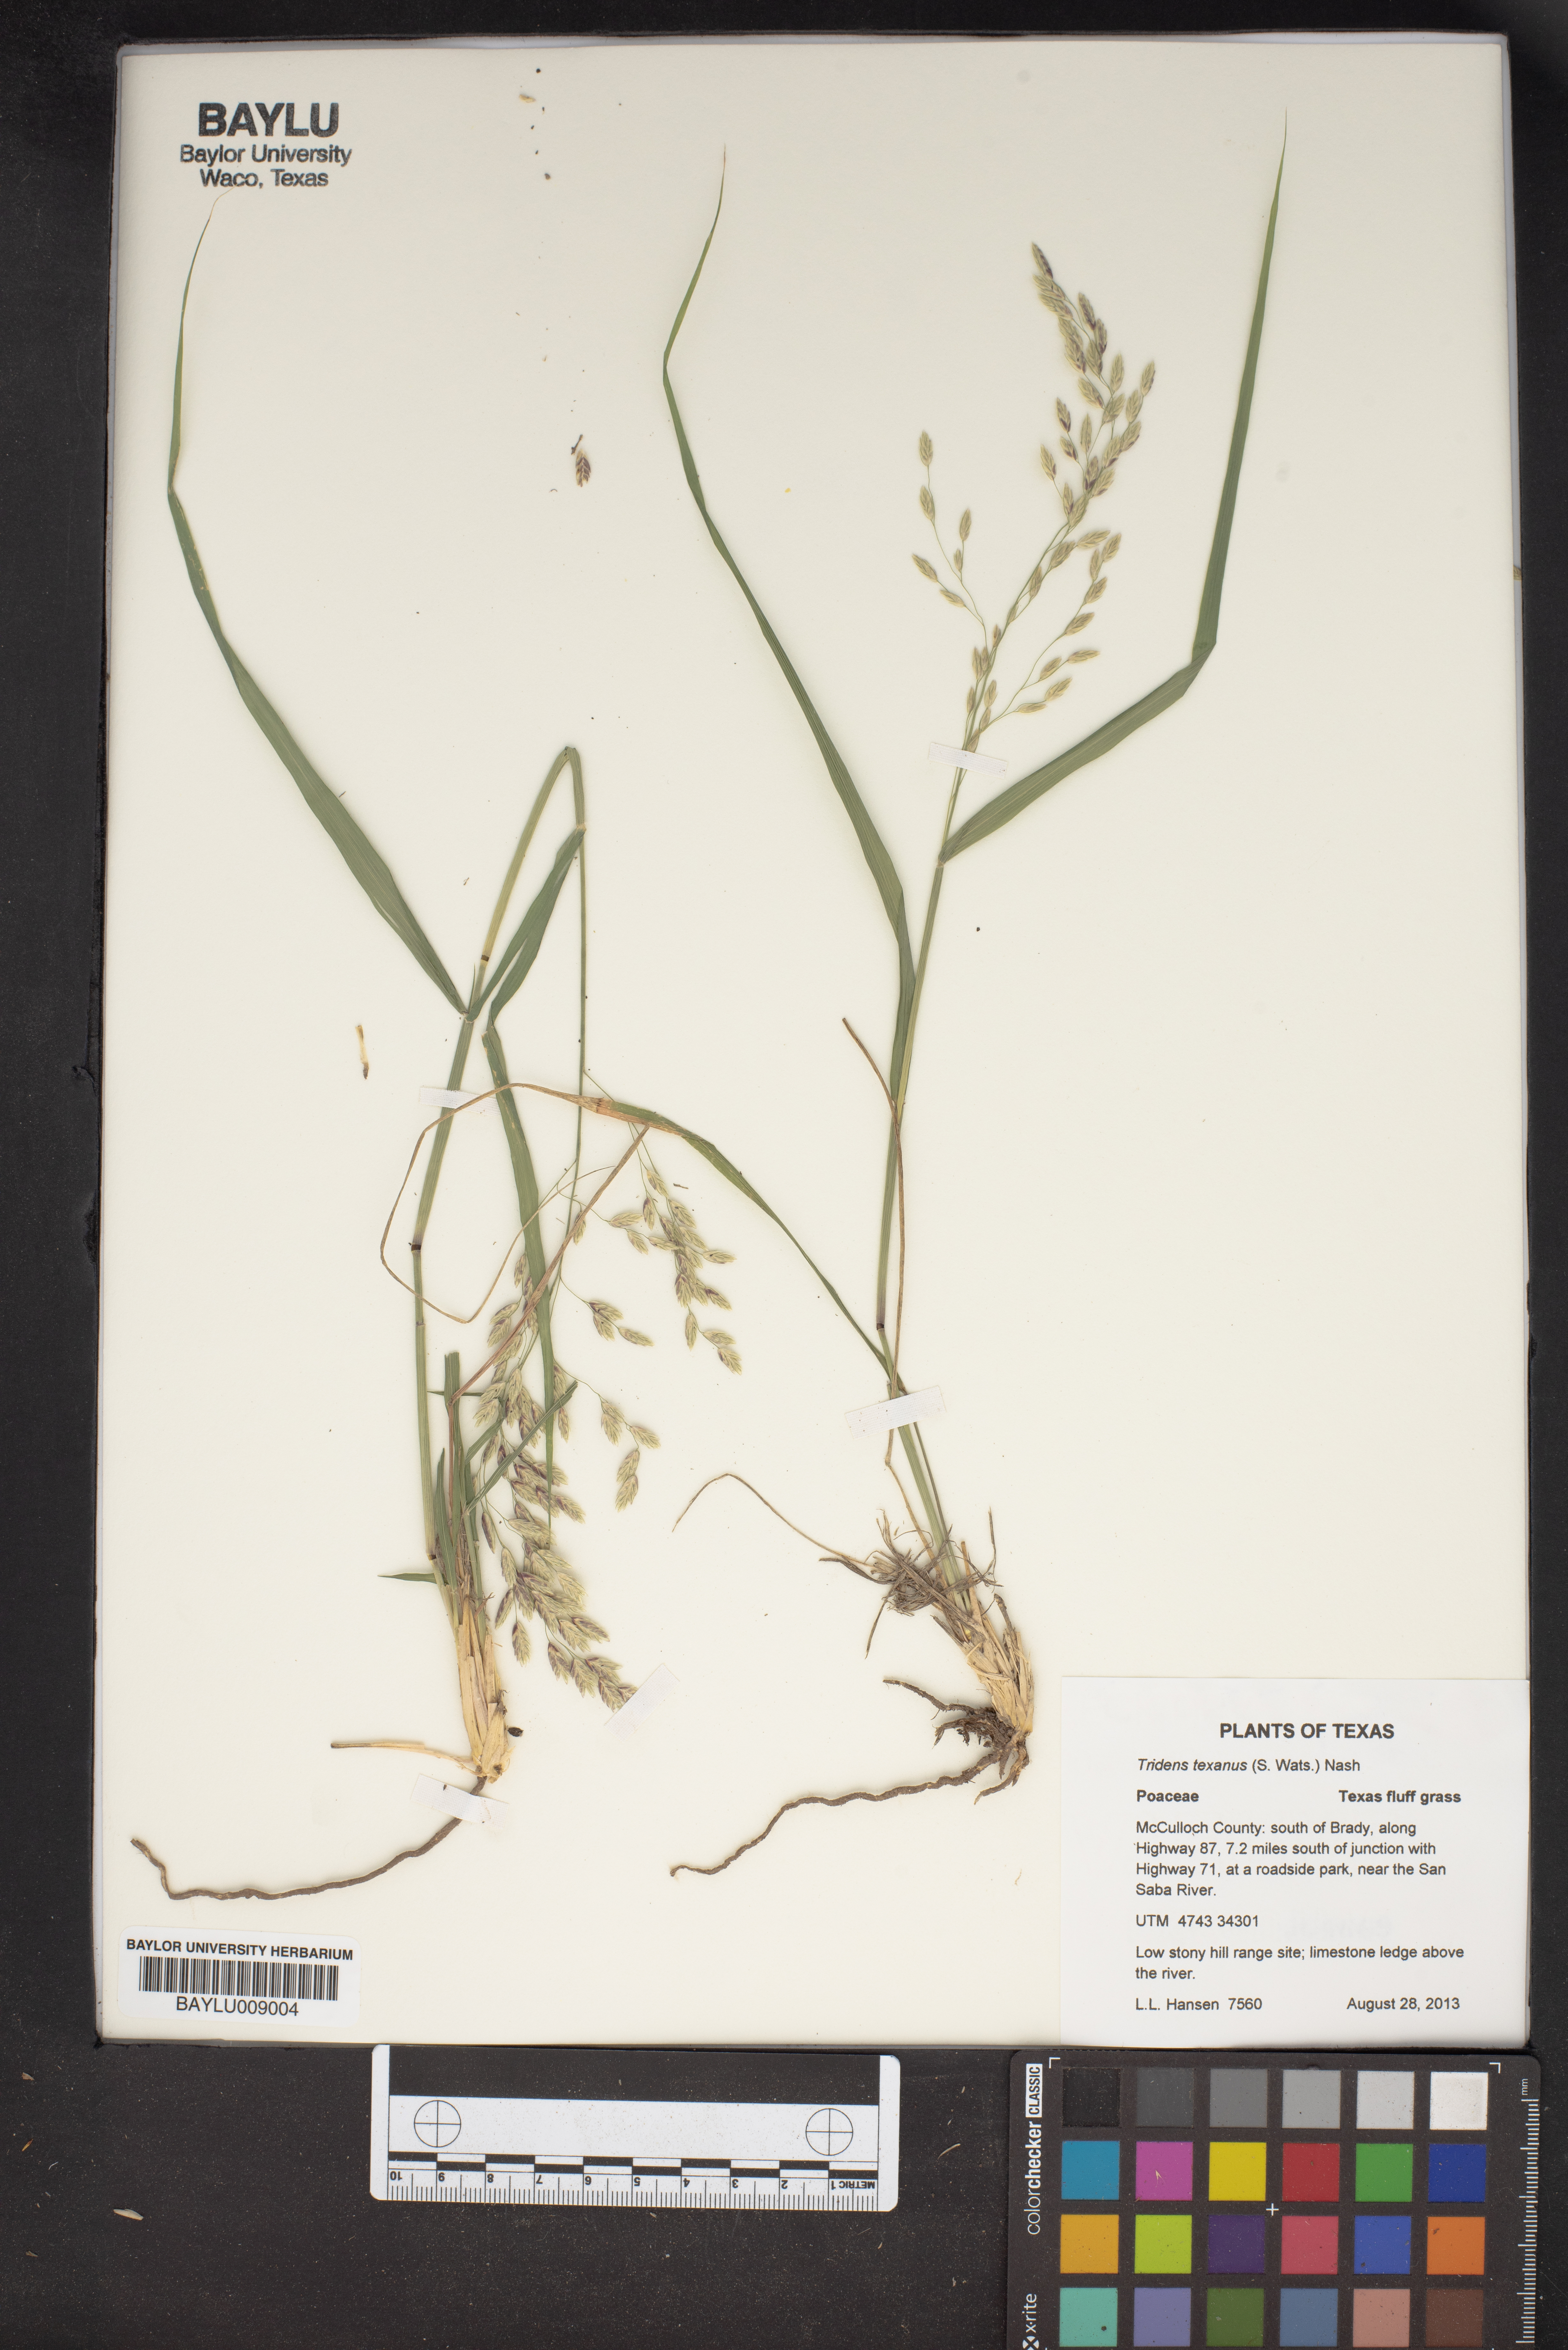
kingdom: Plantae
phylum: Tracheophyta
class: Liliopsida
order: Poales
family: Poaceae
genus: Tridens
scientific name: Tridens texanus
